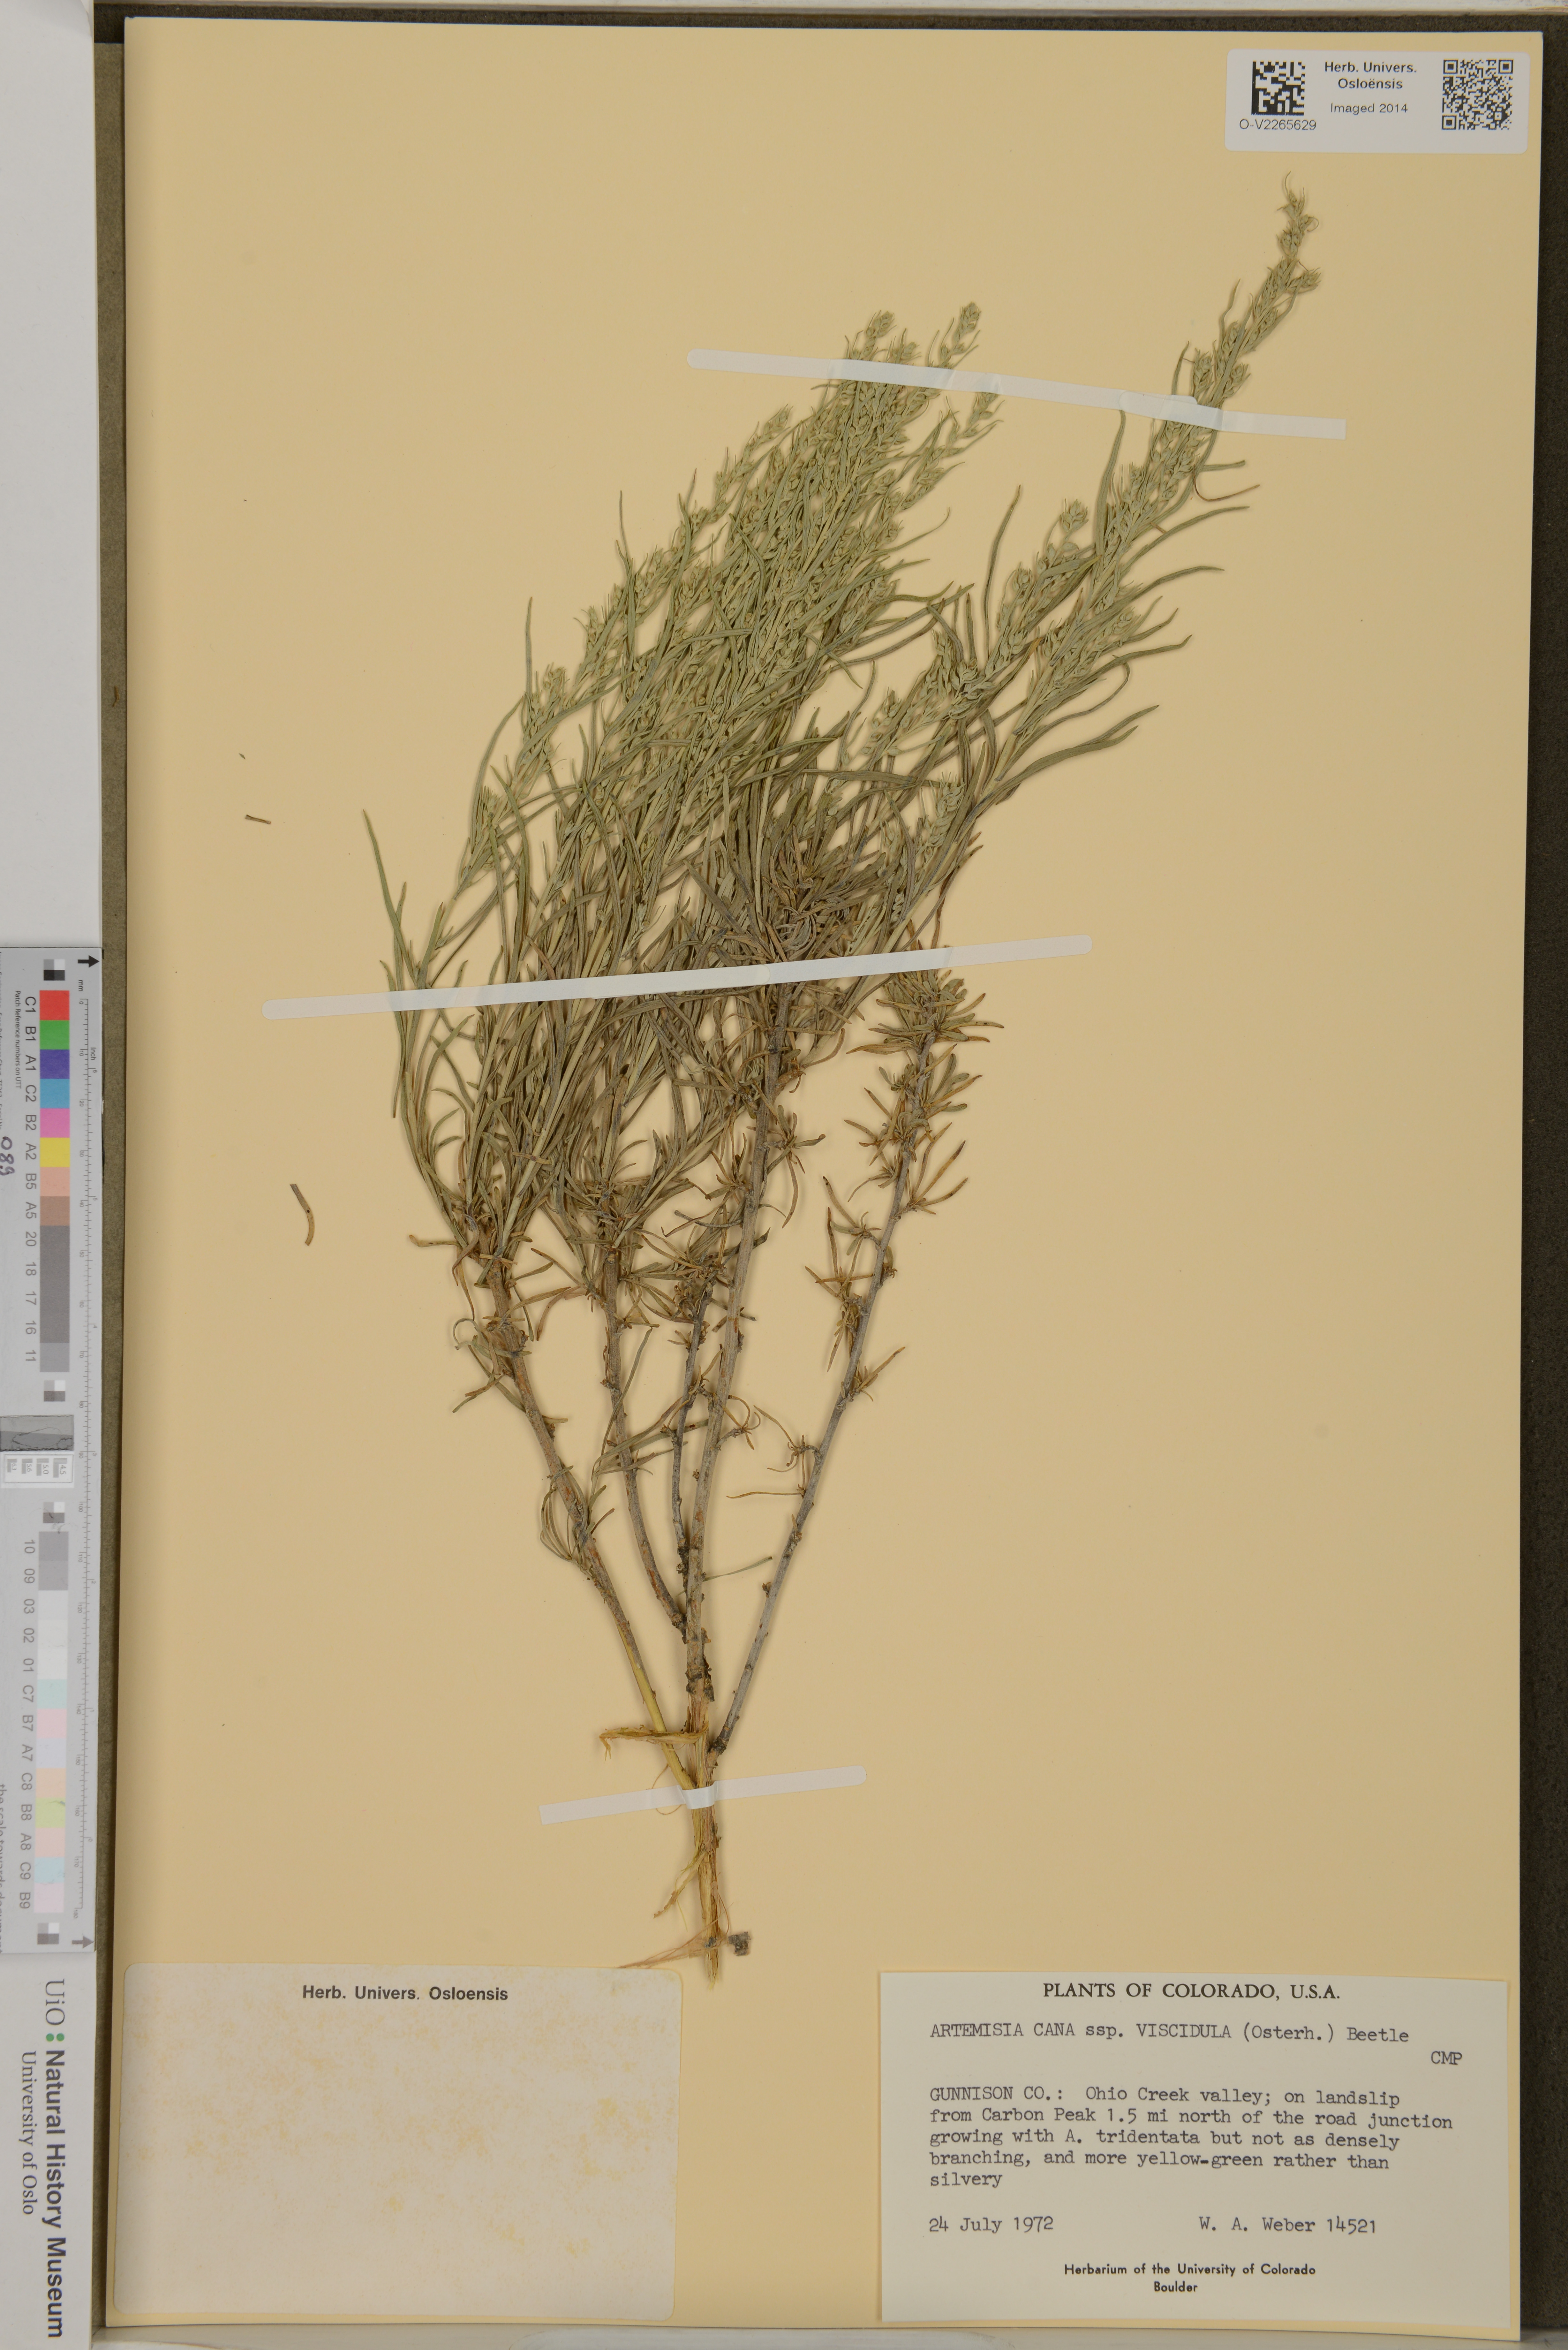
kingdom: Plantae
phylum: Tracheophyta
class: Magnoliopsida
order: Asterales
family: Asteraceae
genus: Artemisia
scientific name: Artemisia cana
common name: Silver sagebrush
